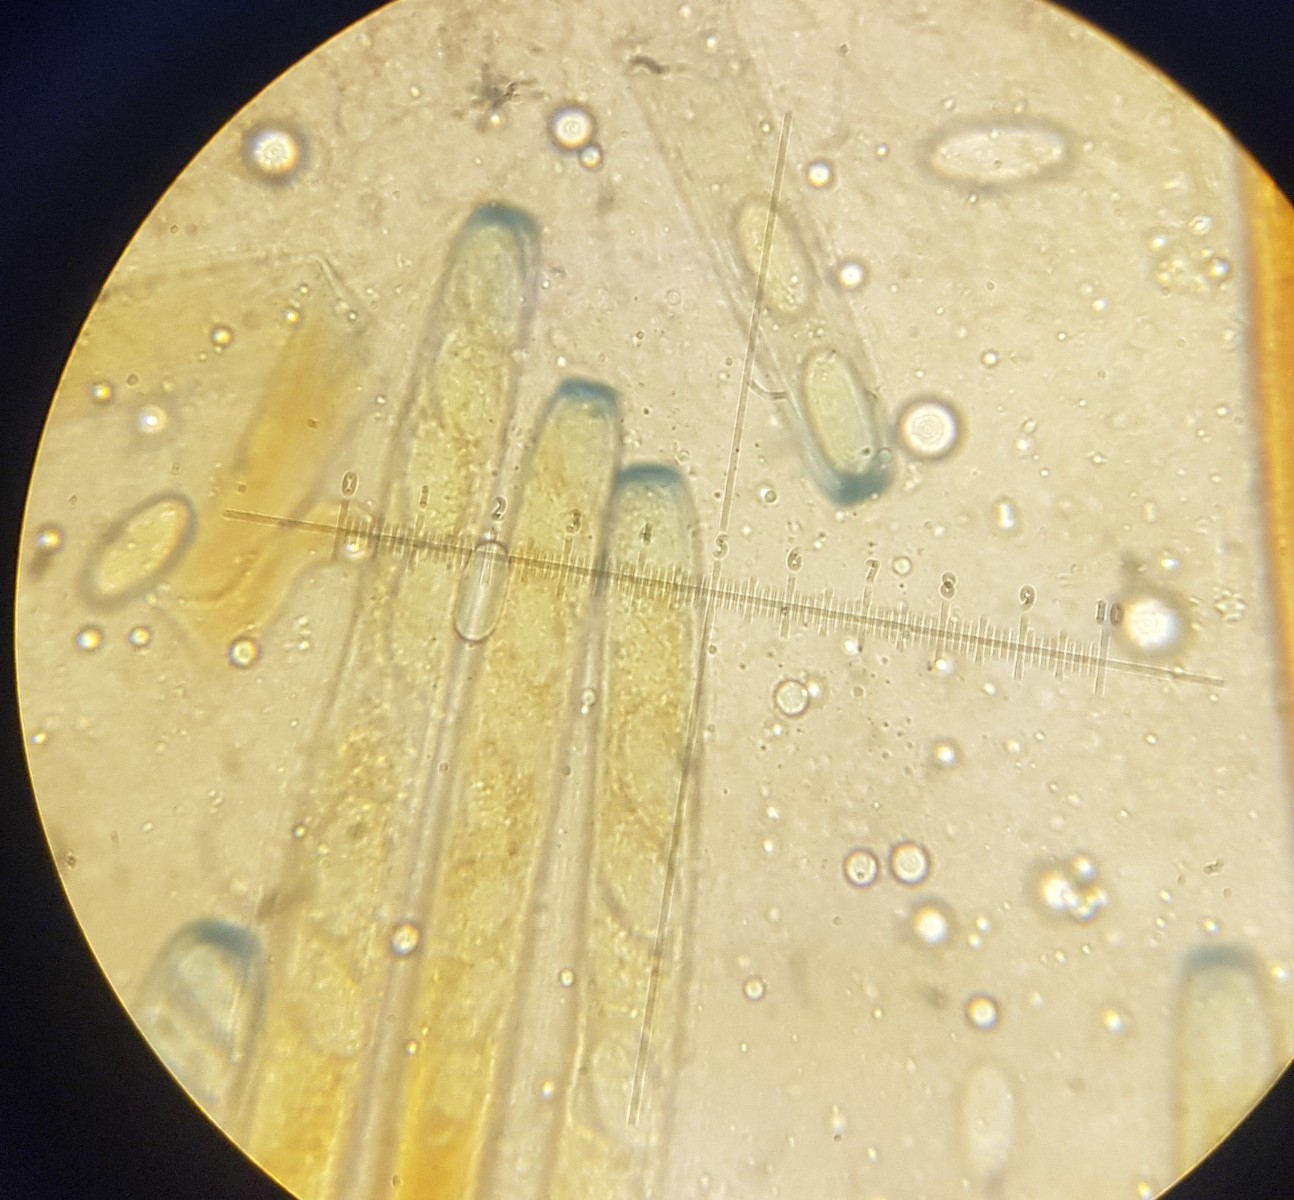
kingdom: Fungi
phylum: Ascomycota
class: Pezizomycetes
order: Pezizales
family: Pezizaceae
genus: Peziza
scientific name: Peziza
